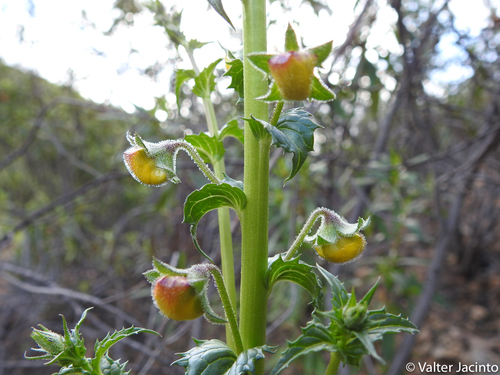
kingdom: Plantae
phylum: Tracheophyta
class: Magnoliopsida
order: Lamiales
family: Scrophulariaceae
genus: Verbascum
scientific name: Verbascum barnadesii
